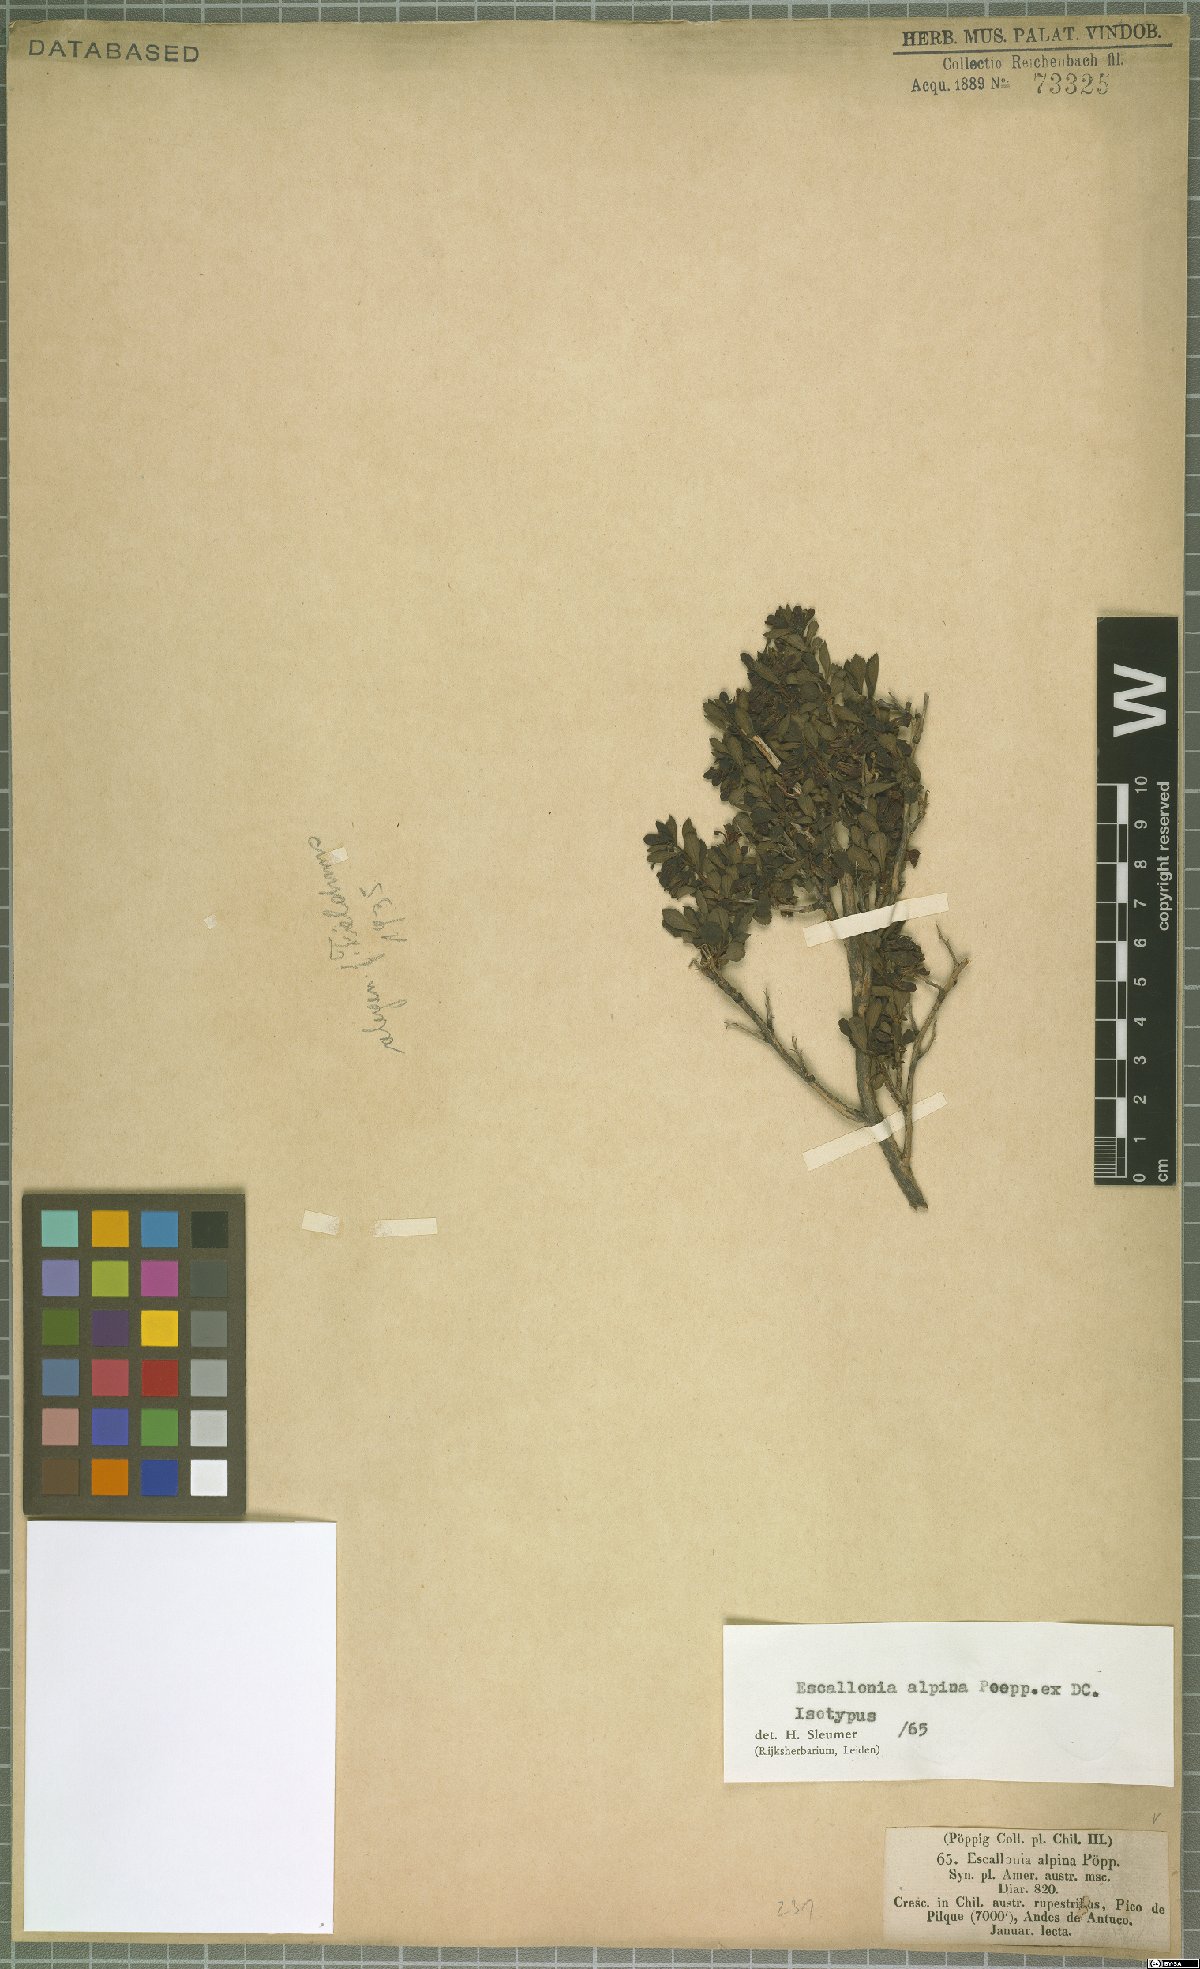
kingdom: Plantae
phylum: Tracheophyta
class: Magnoliopsida
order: Escalloniales
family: Escalloniaceae
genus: Escallonia
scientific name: Escallonia alpina
